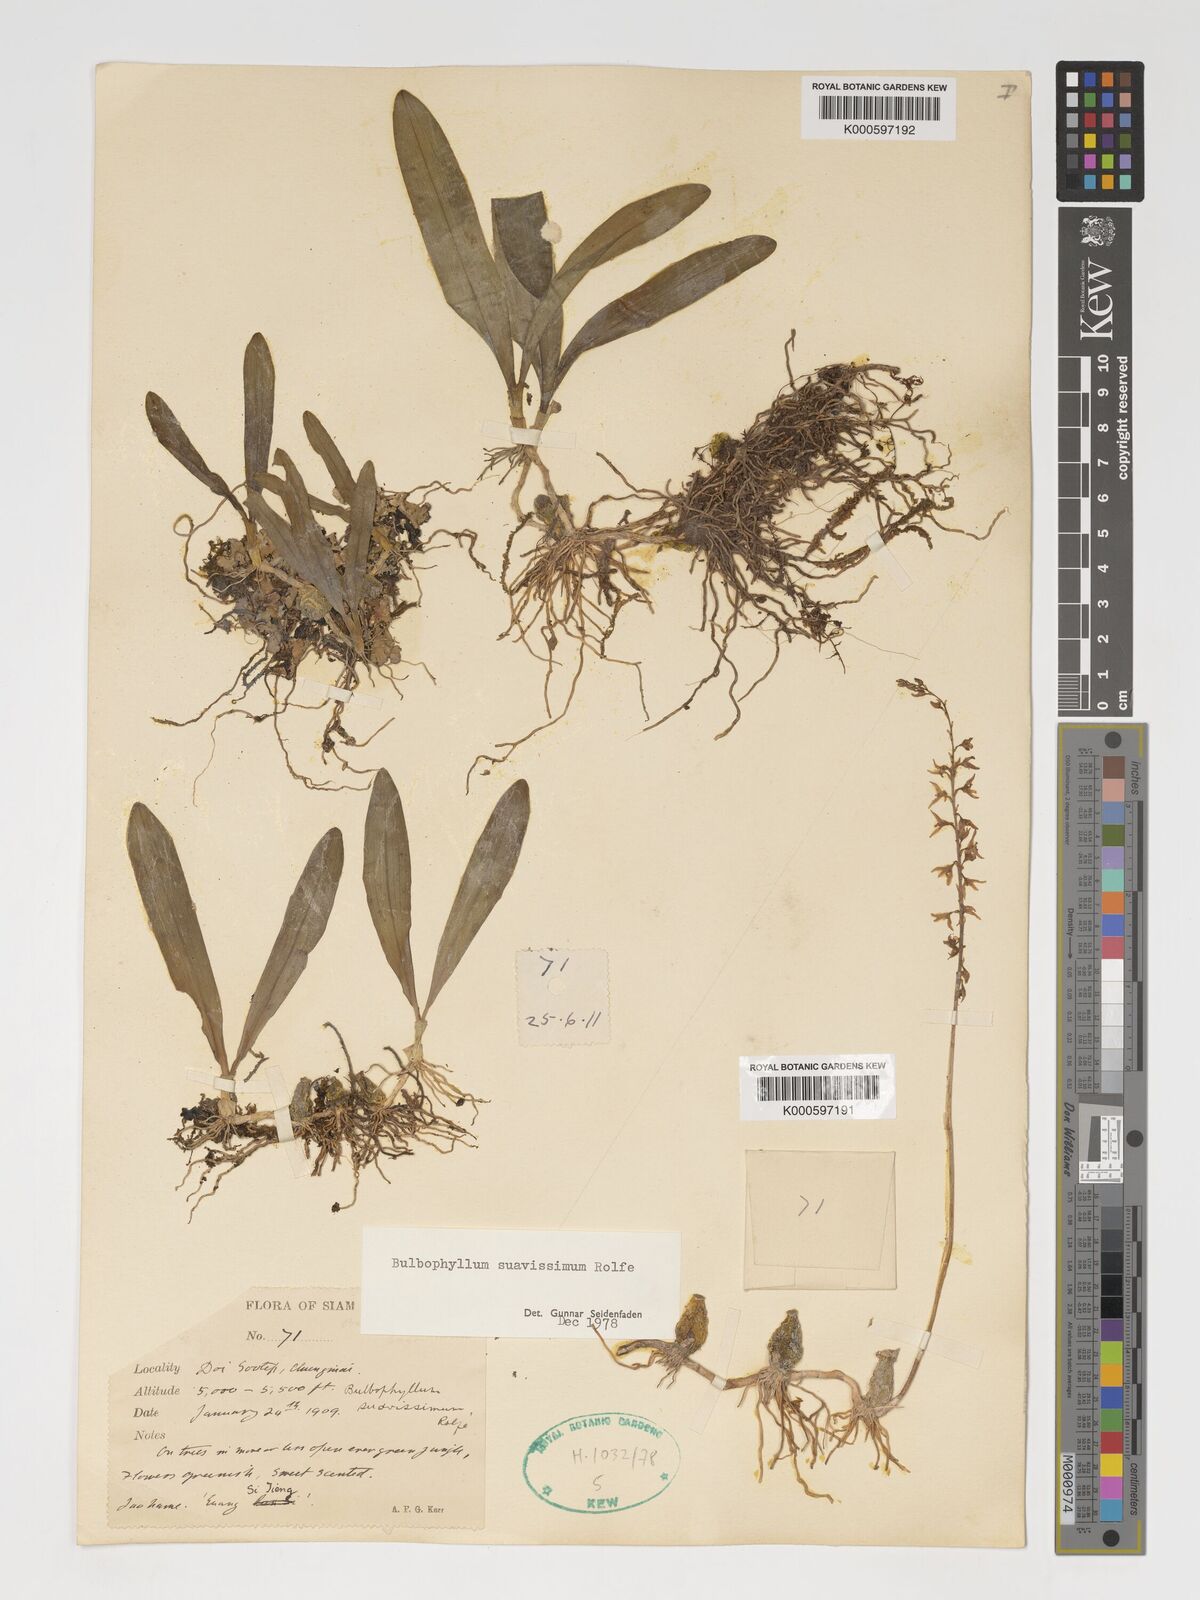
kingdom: Plantae
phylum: Tracheophyta
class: Liliopsida
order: Asparagales
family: Orchidaceae
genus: Bulbophyllum
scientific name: Bulbophyllum suavissimum
